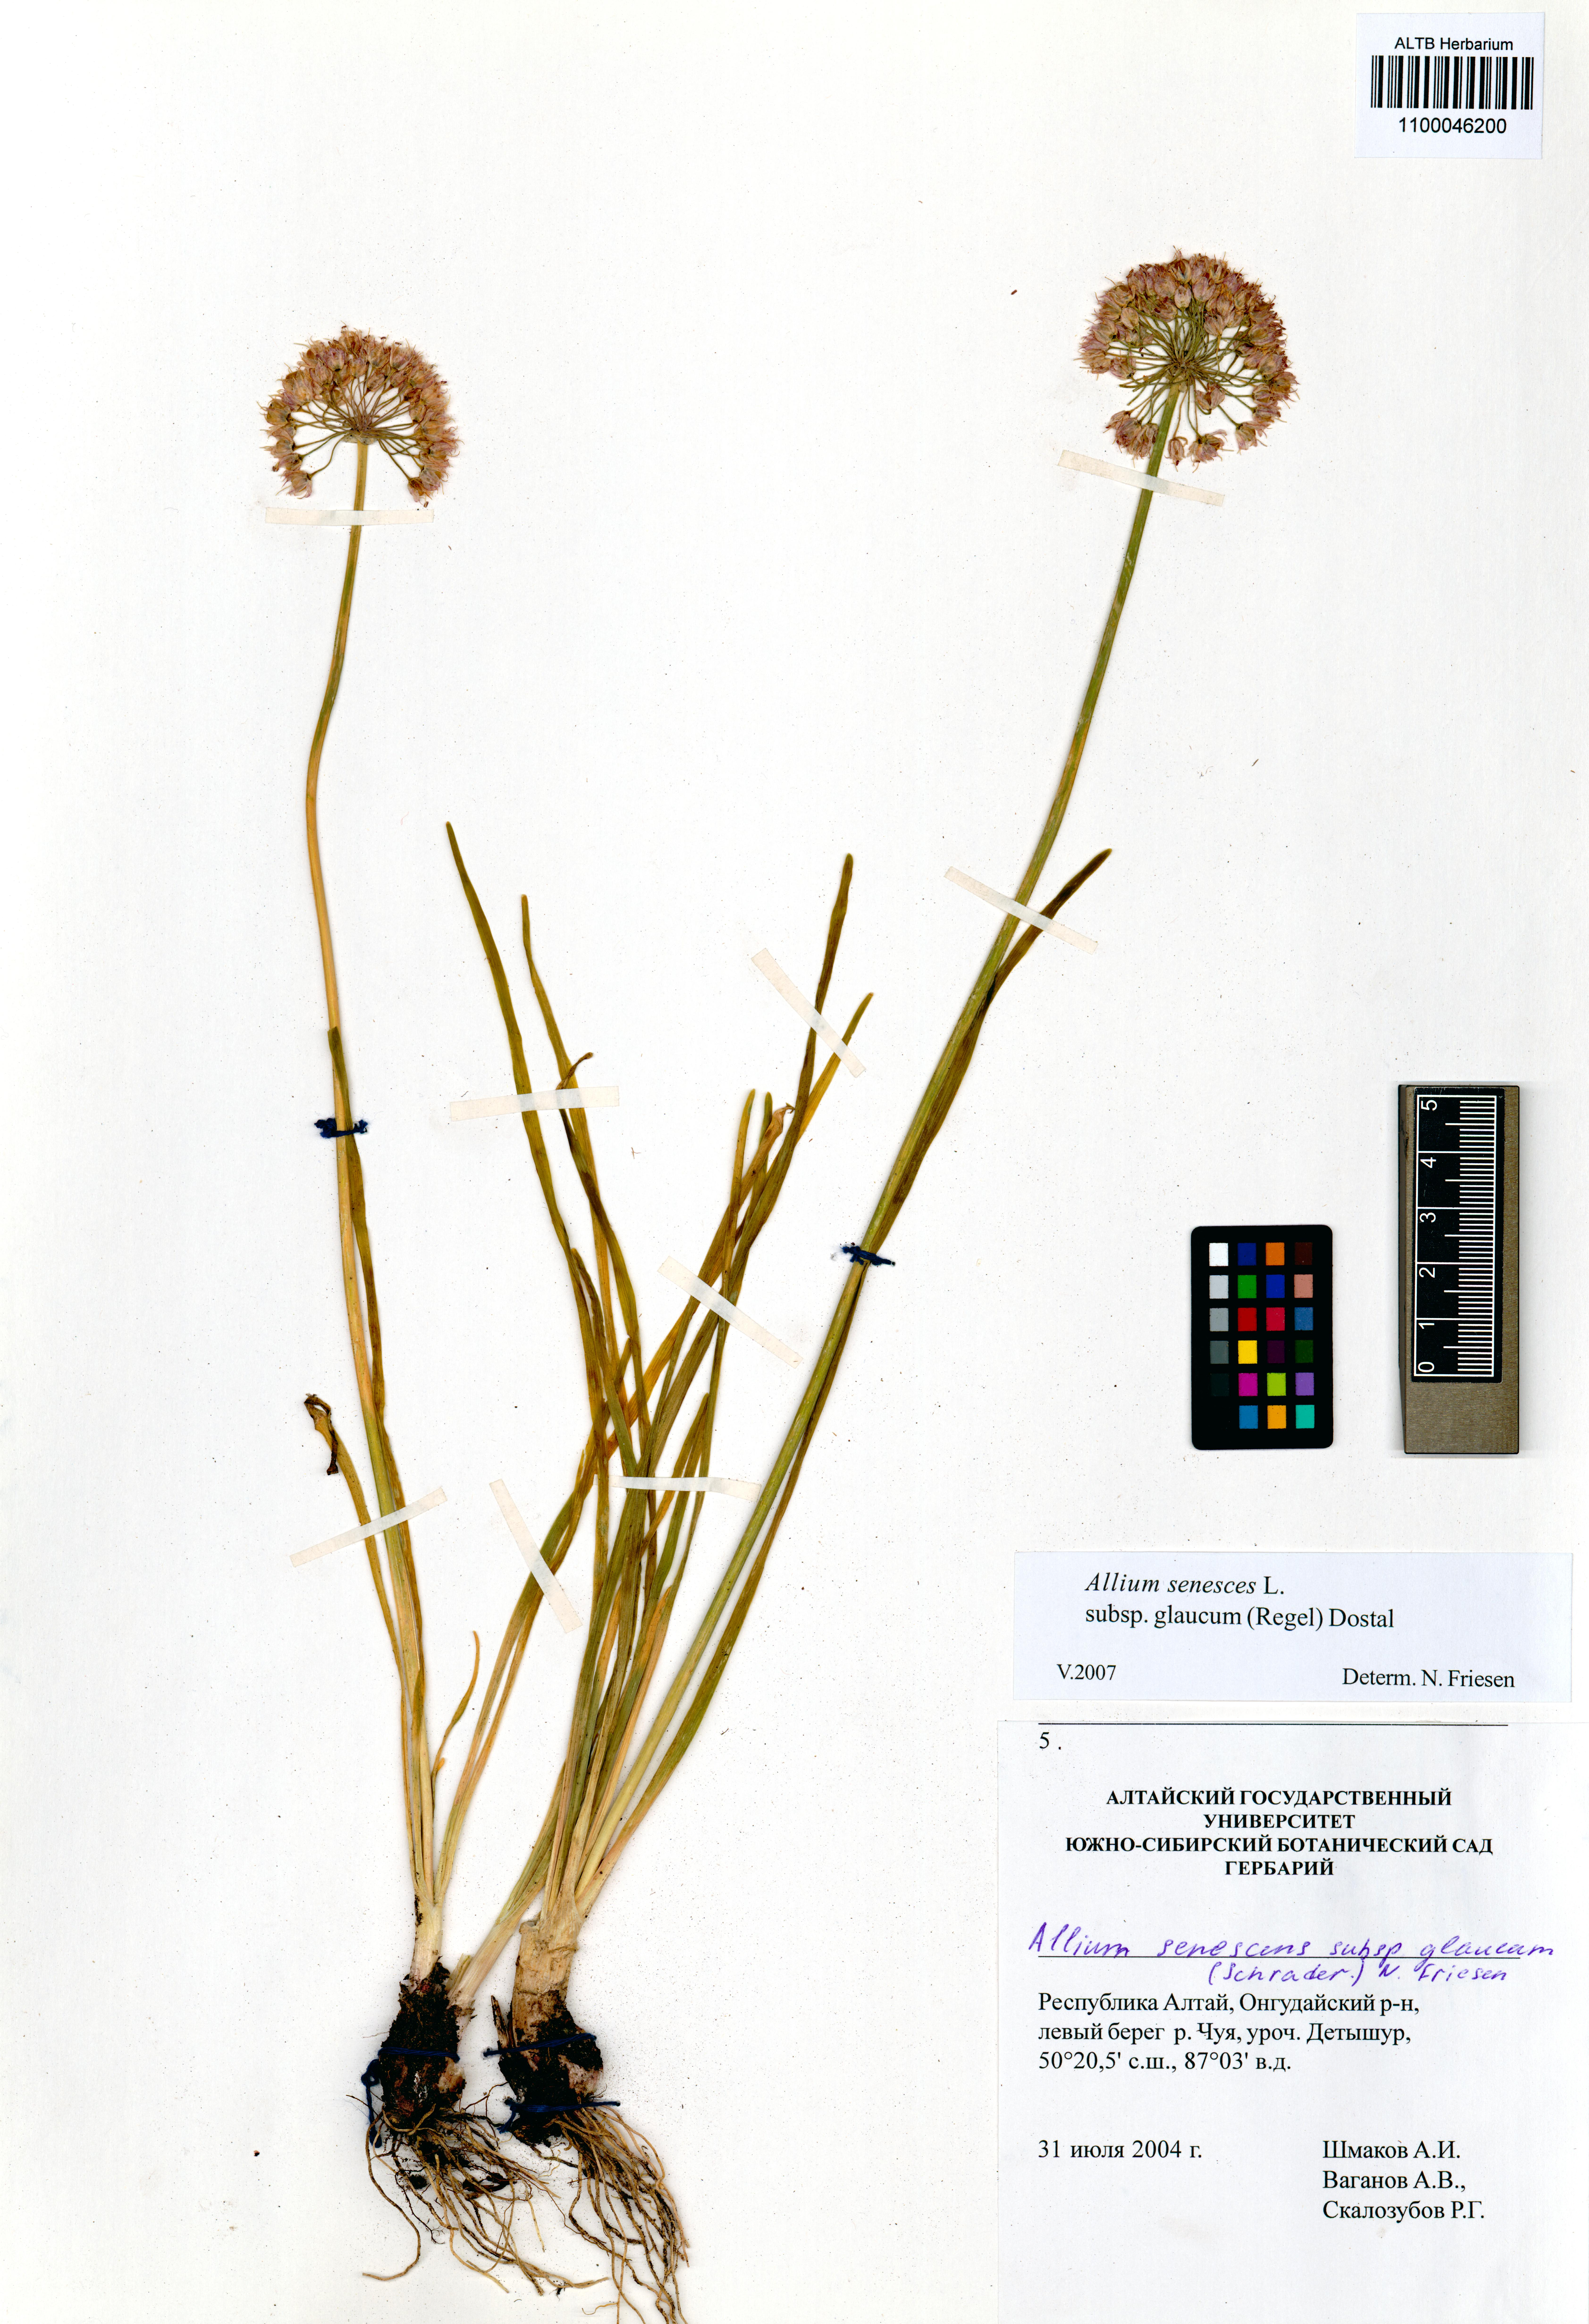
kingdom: Plantae
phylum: Tracheophyta
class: Liliopsida
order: Asparagales
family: Amaryllidaceae
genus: Allium
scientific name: Allium senescens
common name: German garlic
